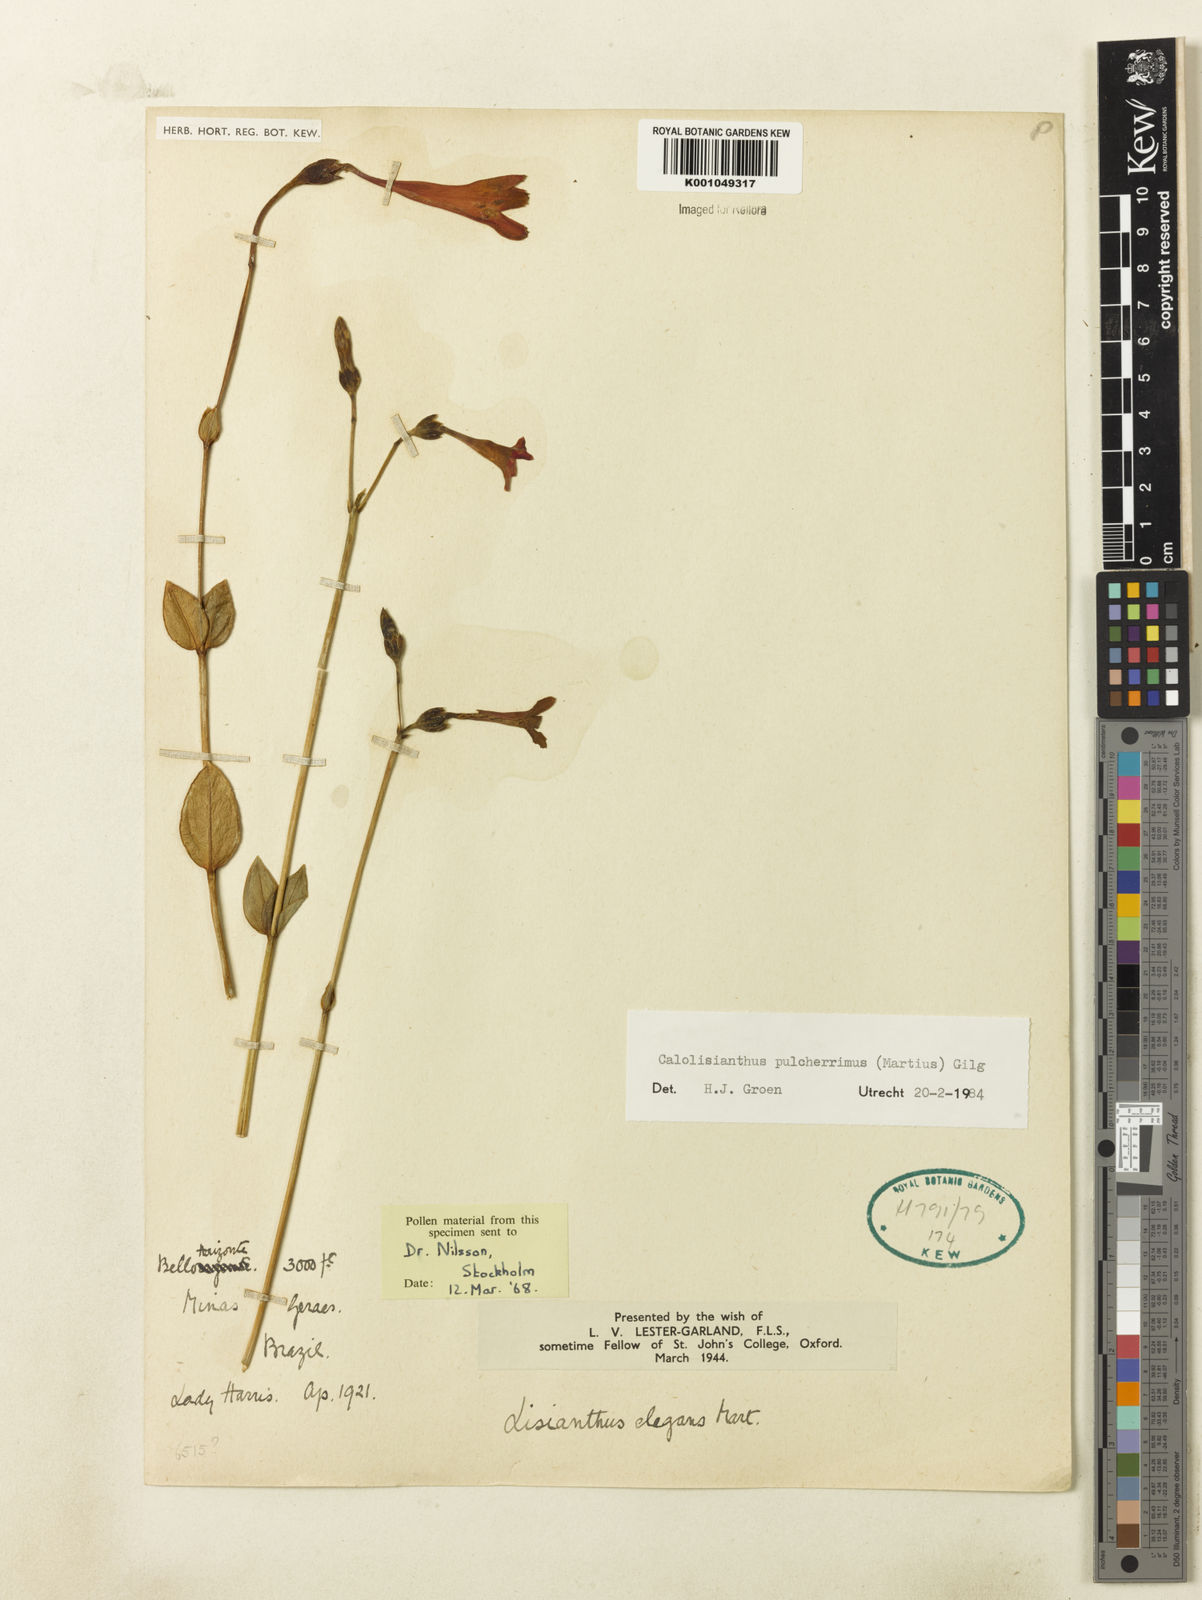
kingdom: Plantae
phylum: Tracheophyta
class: Magnoliopsida
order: Gentianales
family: Gentianaceae
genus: Calolisianthus
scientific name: Calolisianthus pulcherrimus
